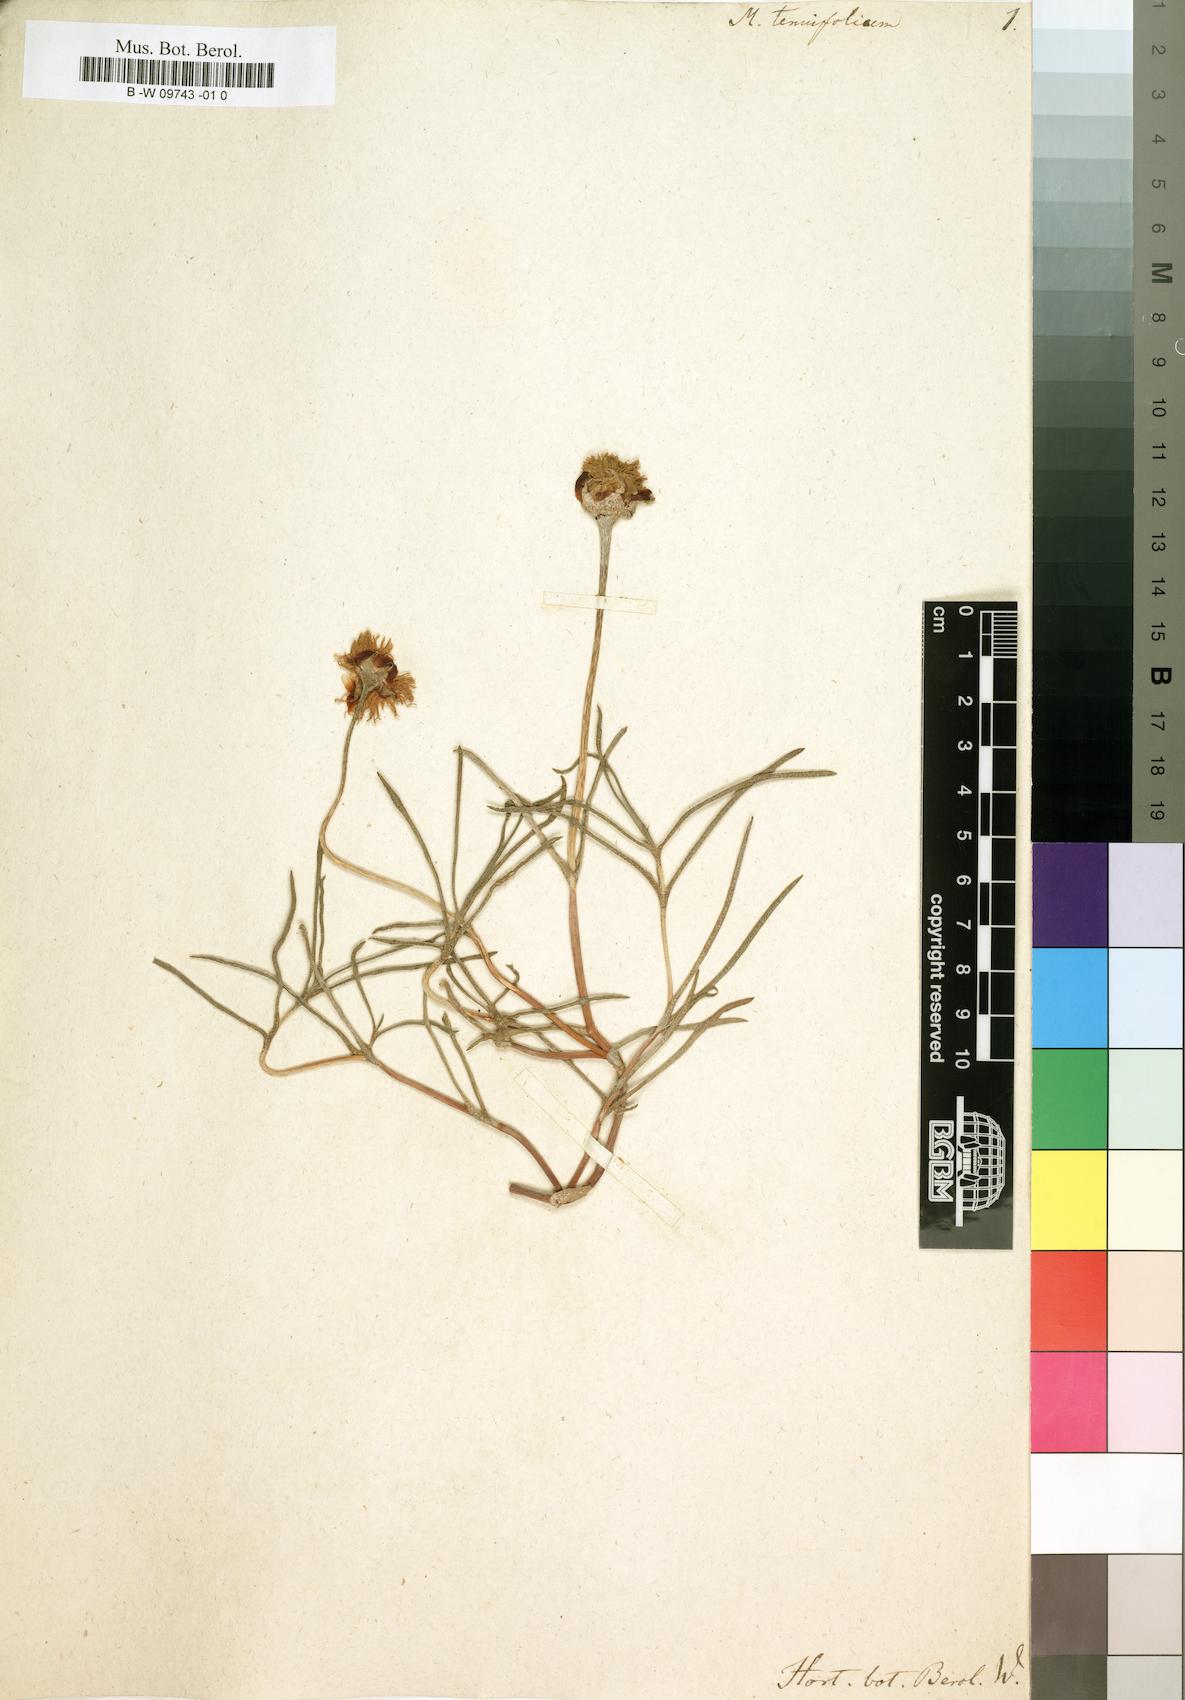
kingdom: Plantae
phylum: Tracheophyta
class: Magnoliopsida
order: Caryophyllales
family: Aizoaceae
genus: Mesembryanthemum
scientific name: Mesembryanthemum tenuifolium
